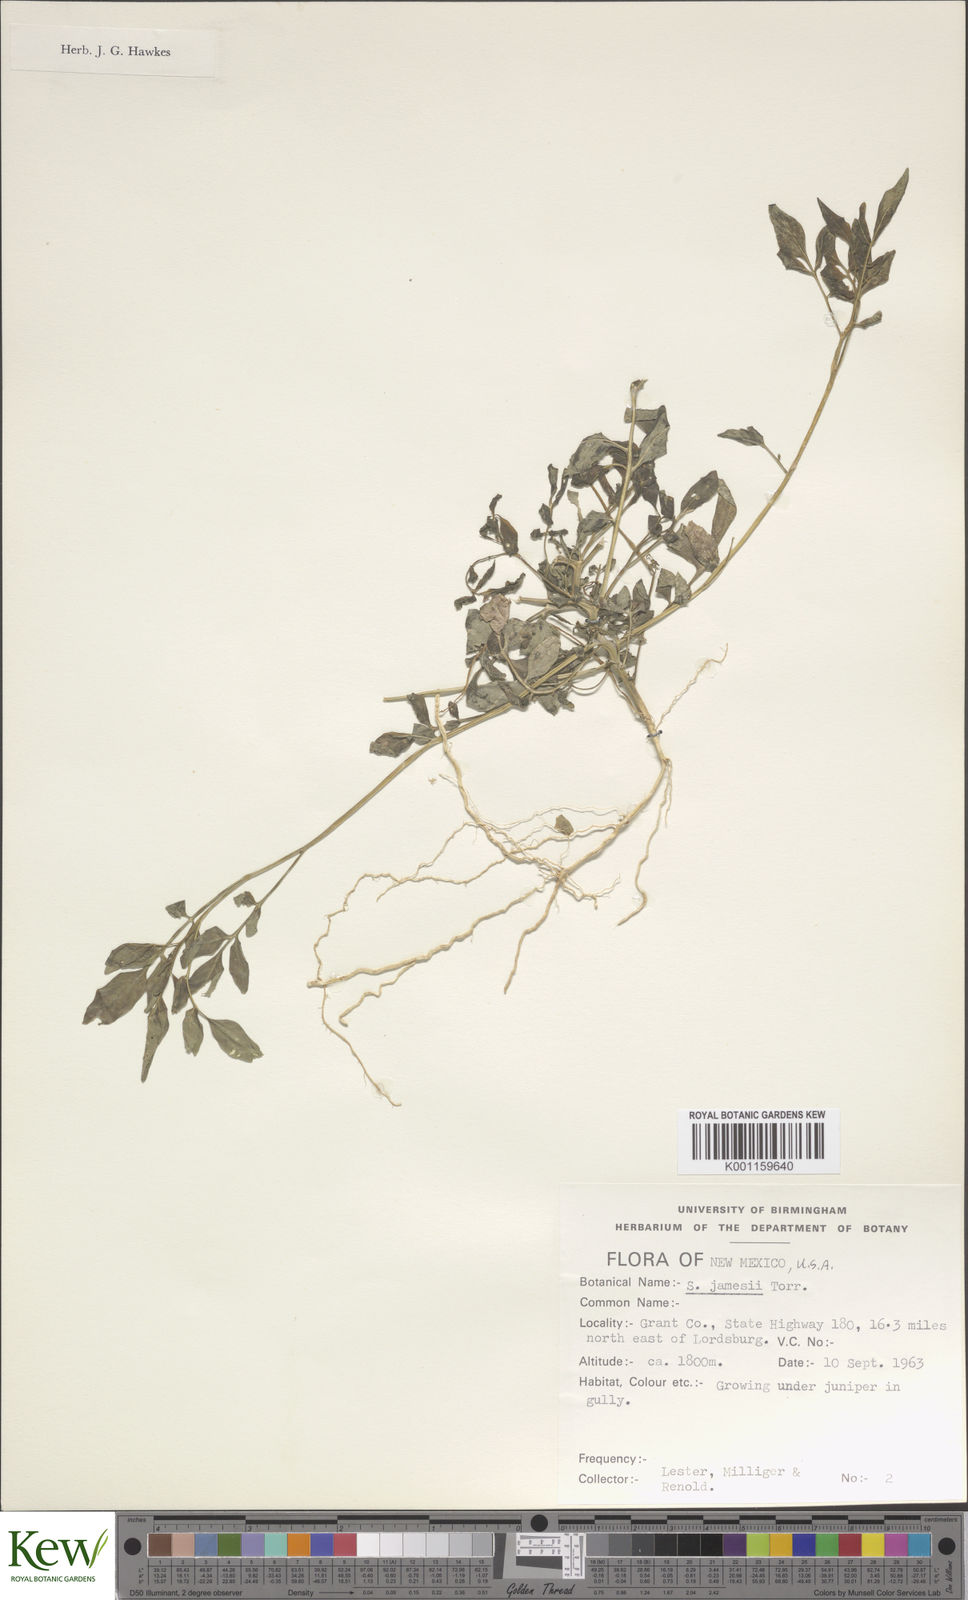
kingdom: Plantae
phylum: Tracheophyta
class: Magnoliopsida
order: Solanales
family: Solanaceae
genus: Solanum
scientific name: Solanum jamesii
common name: Wild potato
